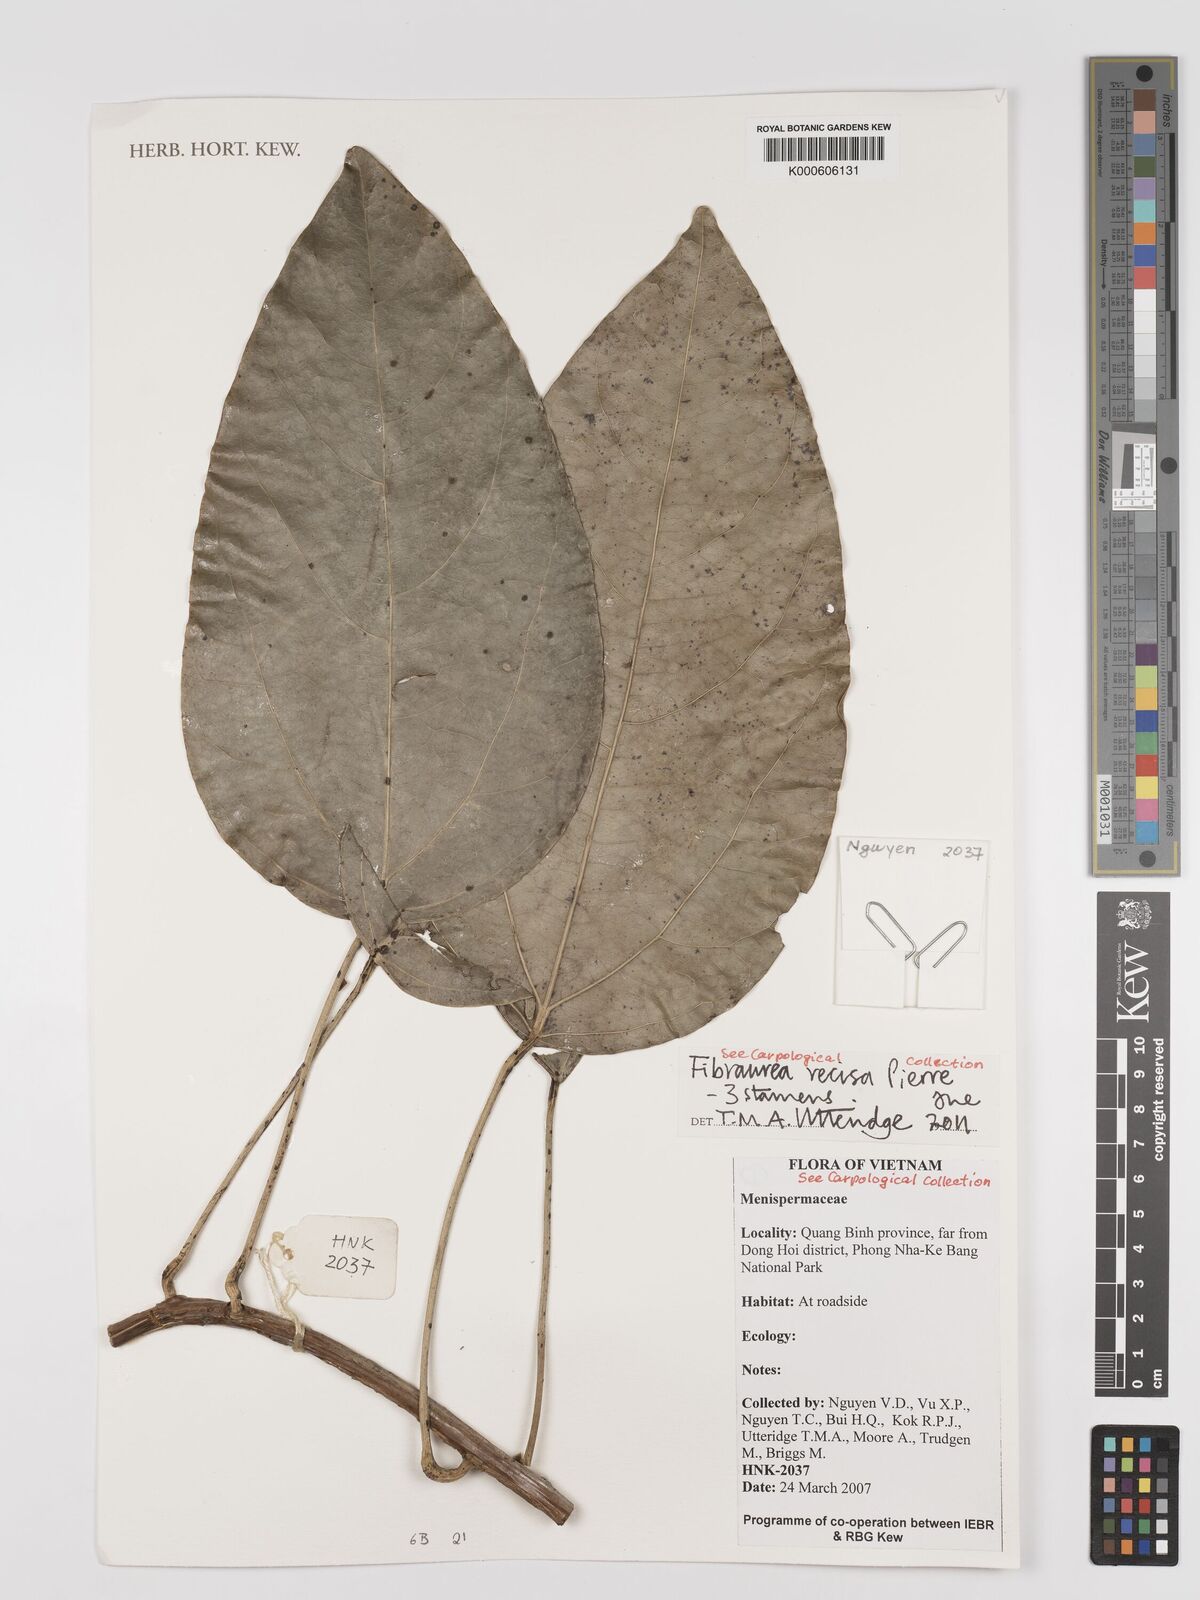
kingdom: Plantae
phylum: Tracheophyta
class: Magnoliopsida
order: Ranunculales
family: Menispermaceae
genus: Fibraurea
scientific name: Fibraurea recisa
